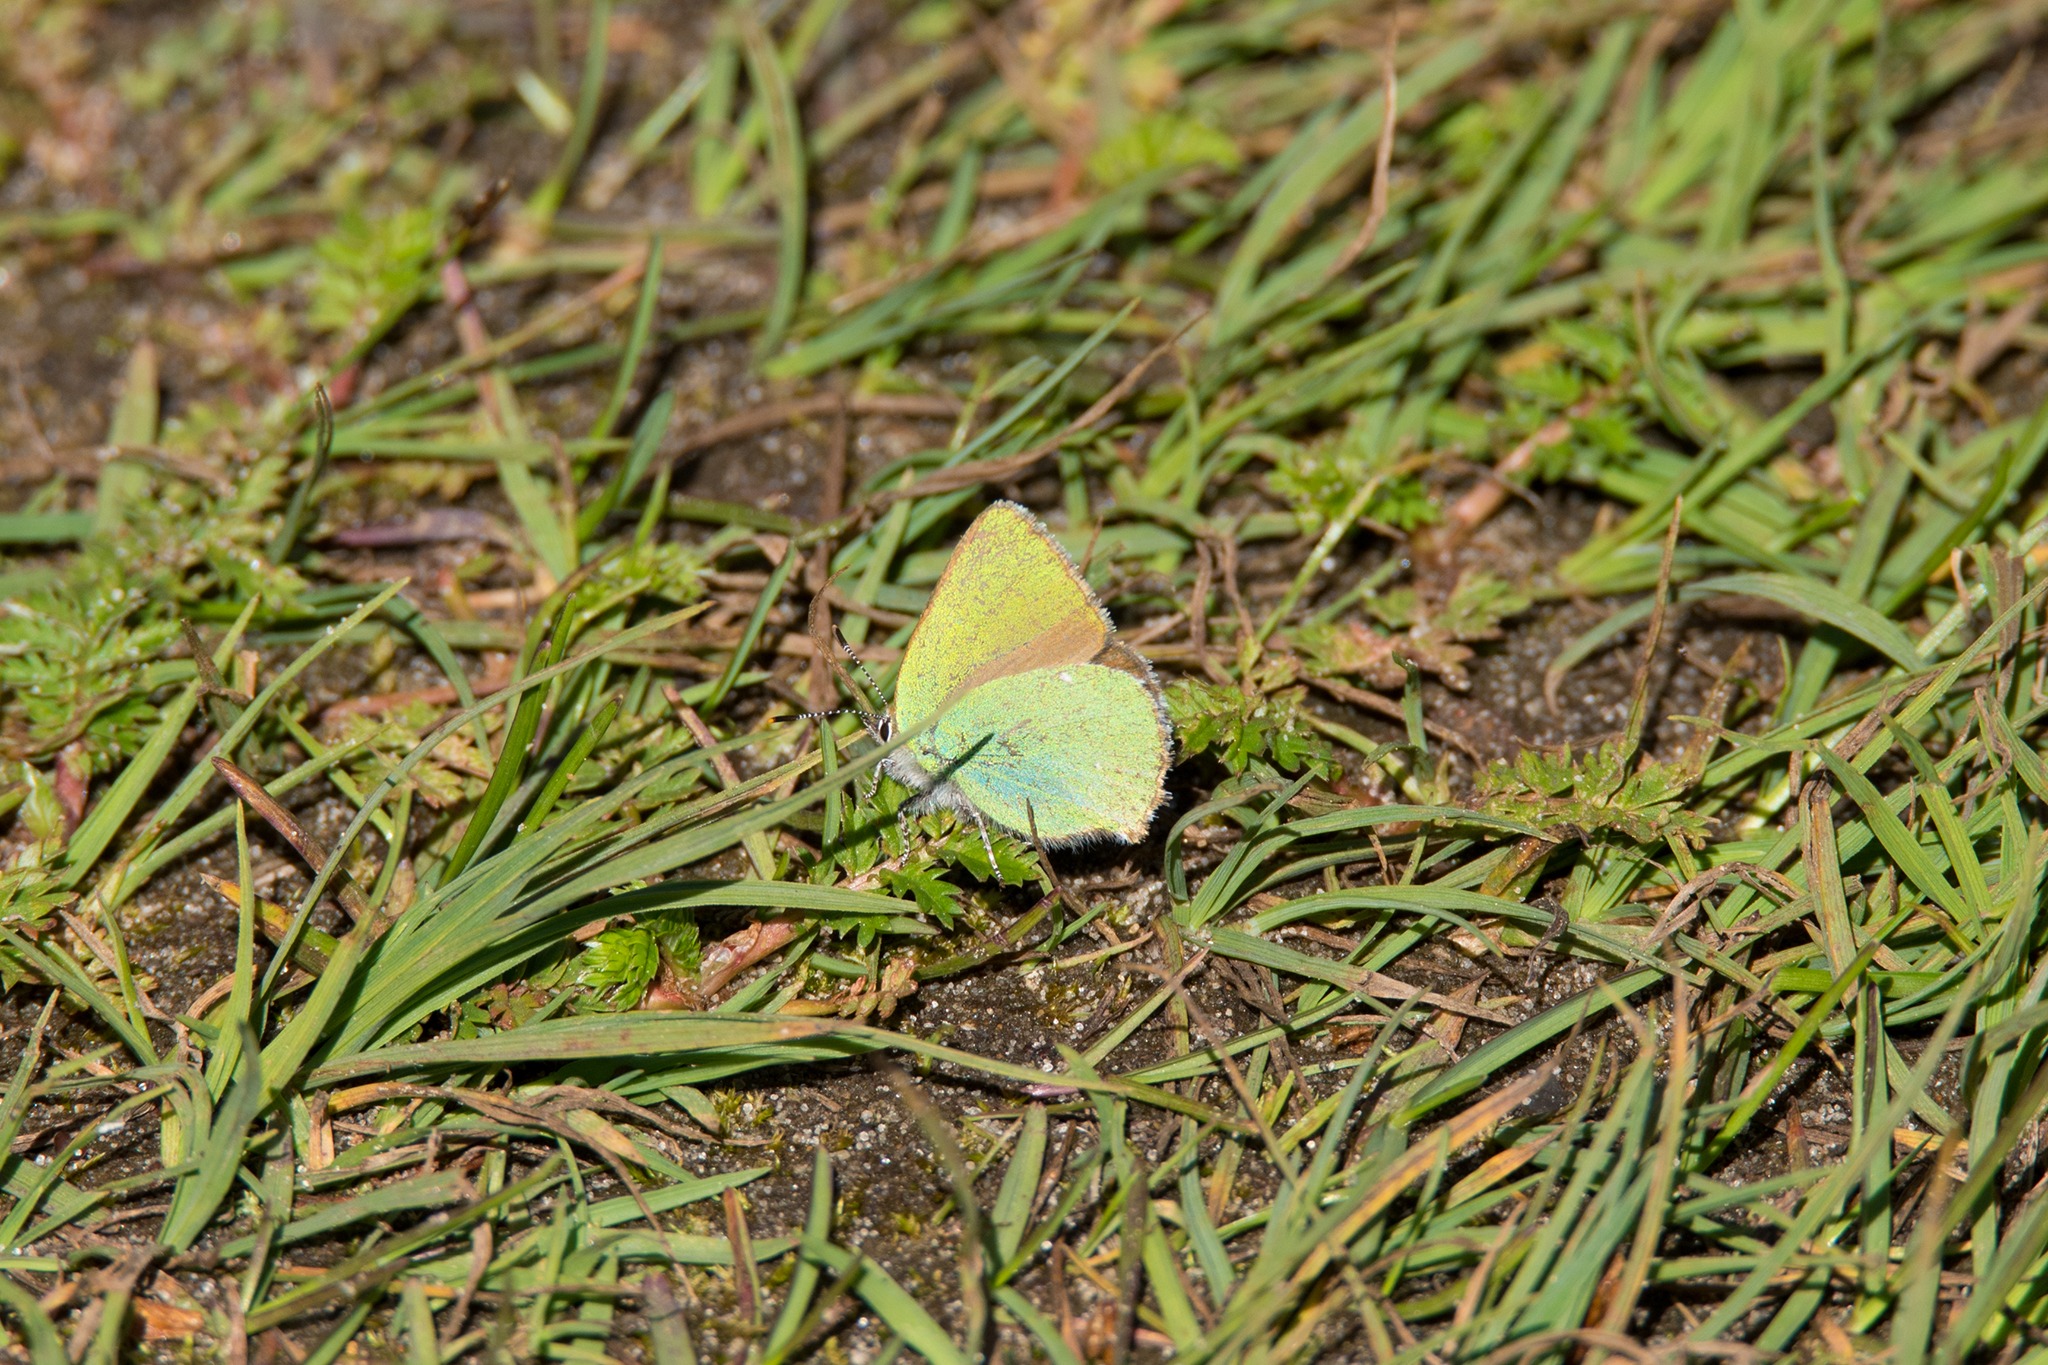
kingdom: Animalia
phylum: Arthropoda
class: Insecta
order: Lepidoptera
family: Lycaenidae
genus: Callophrys
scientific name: Callophrys rubi
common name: Grøn busksommerfugl
